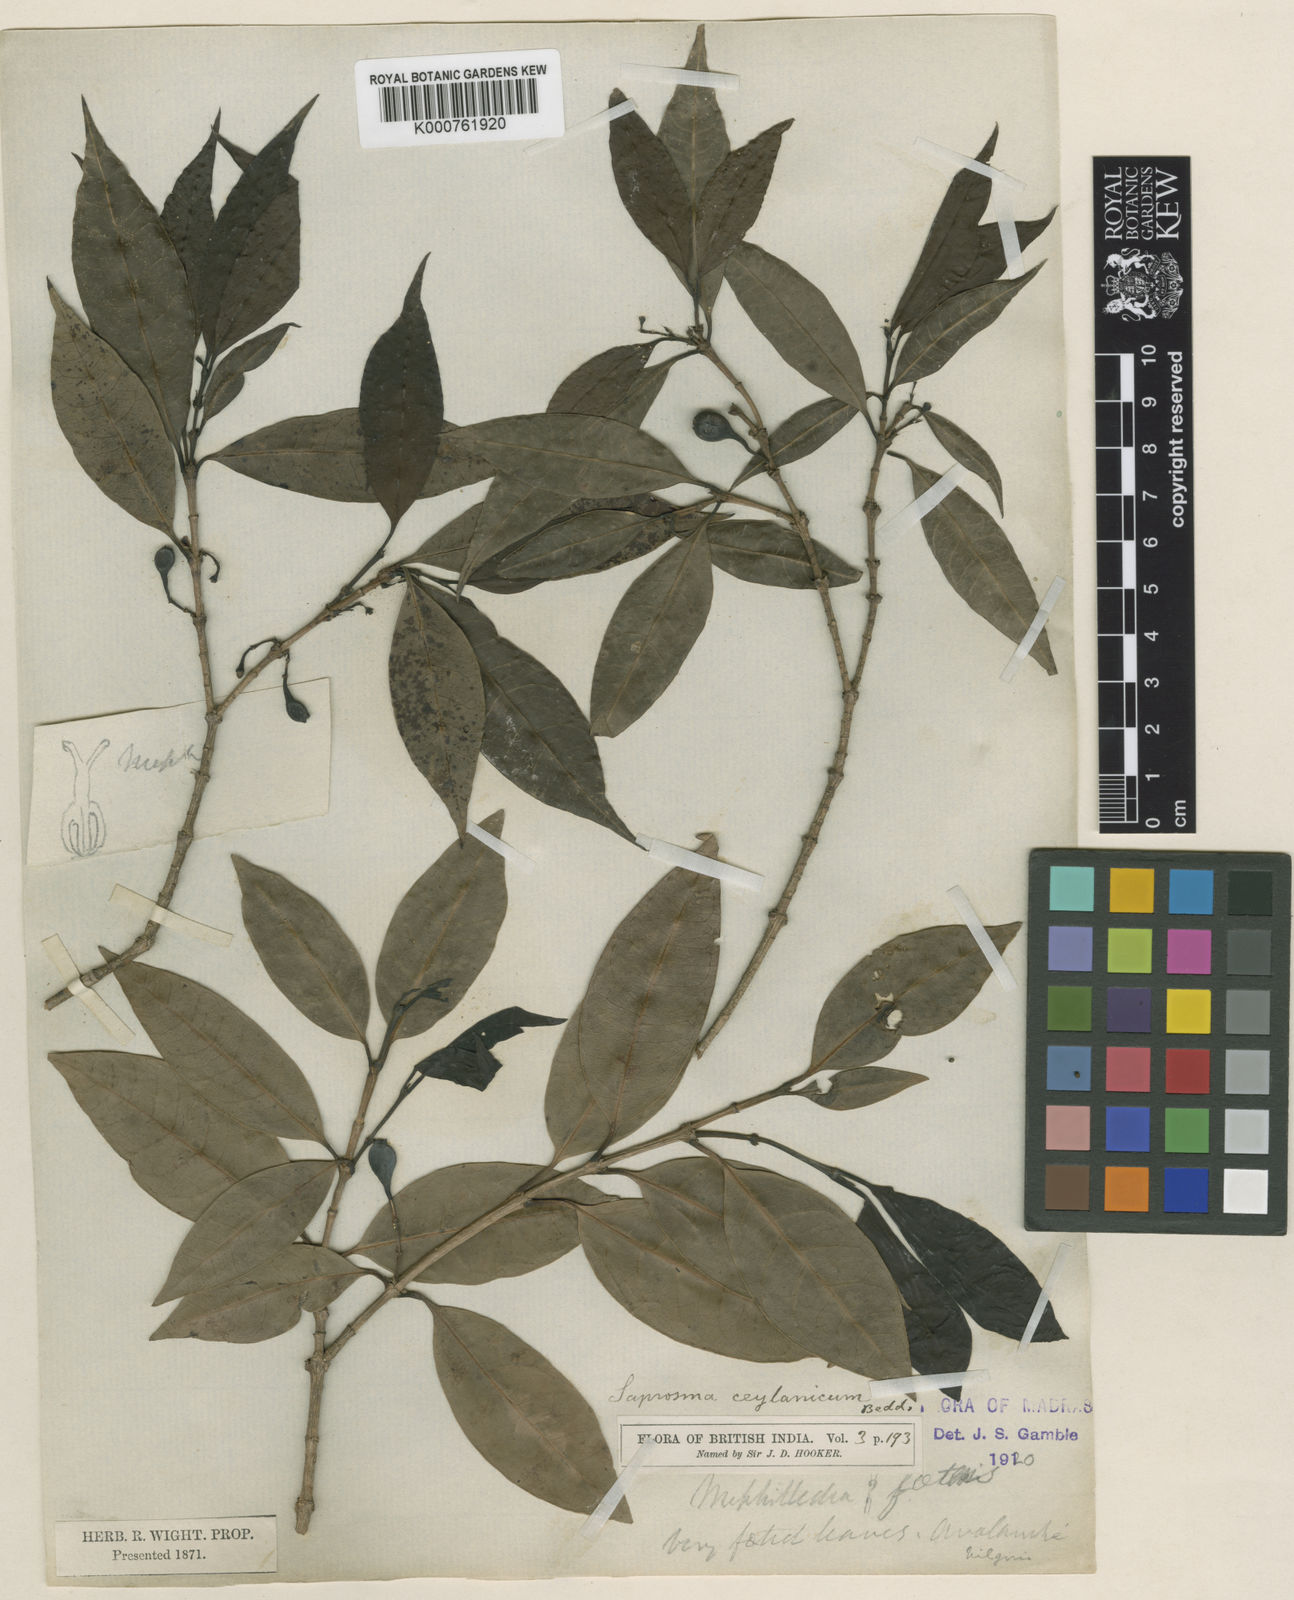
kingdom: Plantae
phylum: Tracheophyta
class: Magnoliopsida
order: Gentianales
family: Rubiaceae
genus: Saprosma
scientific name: Saprosma foetens
